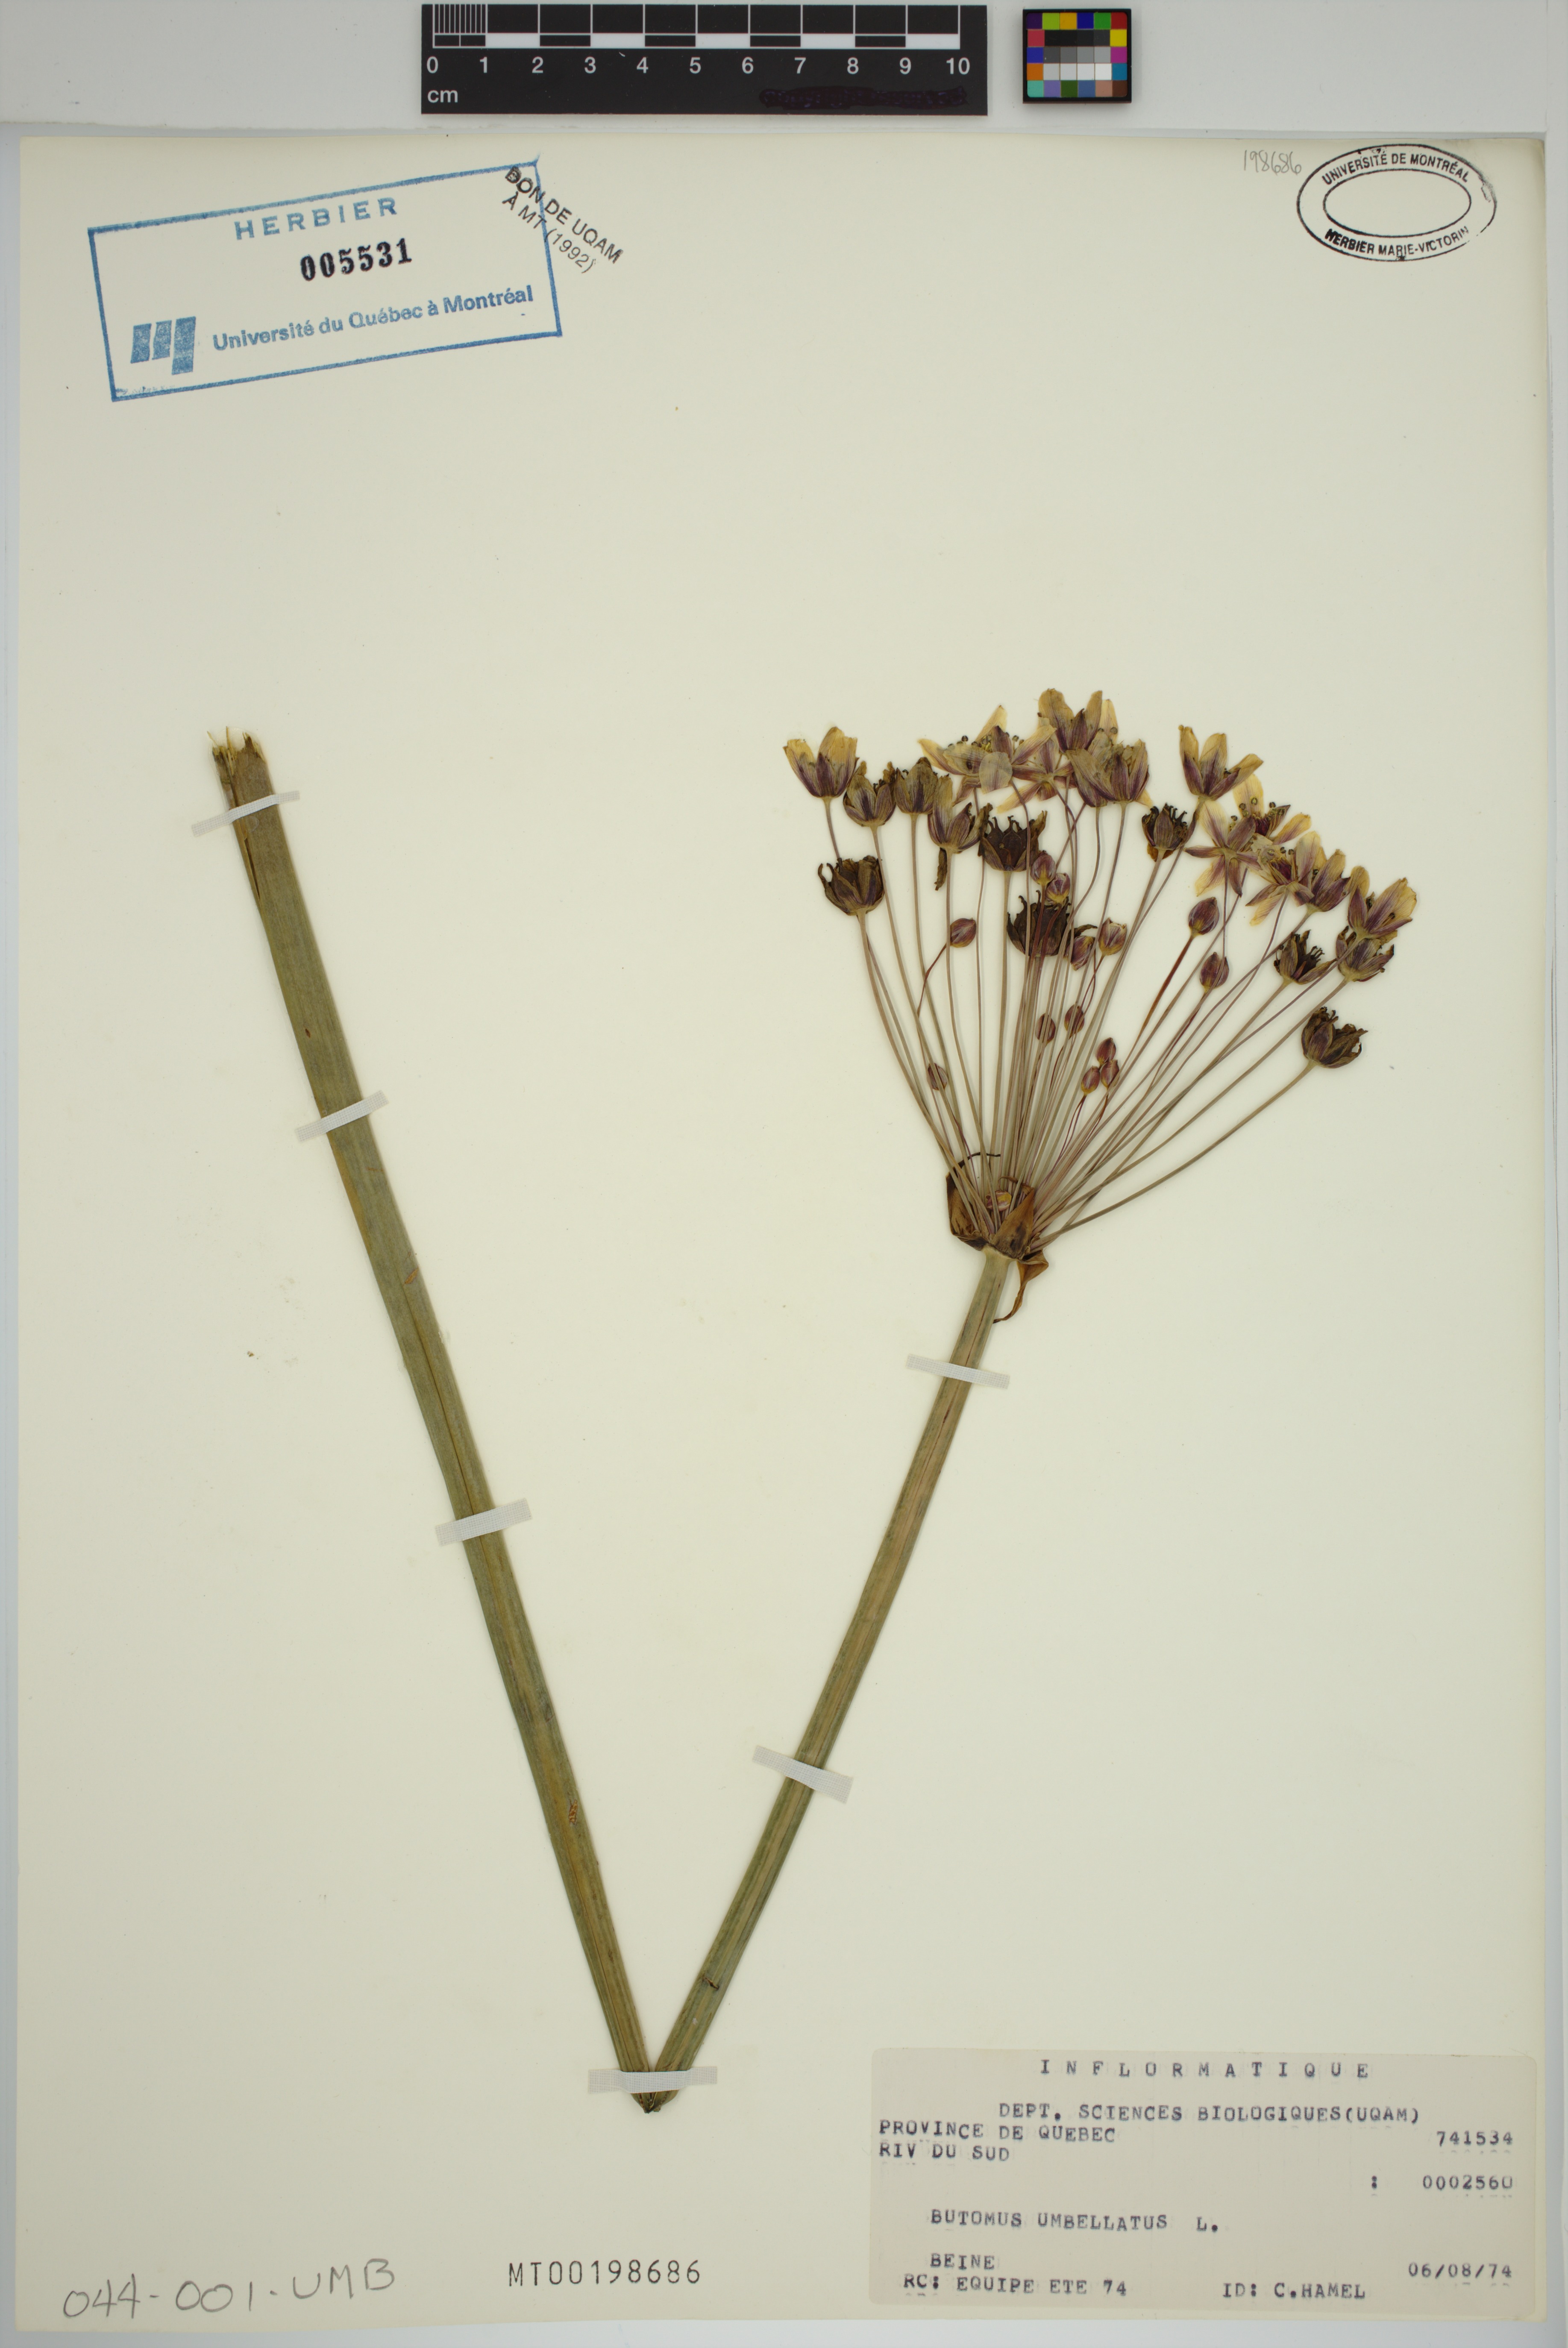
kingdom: Plantae
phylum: Tracheophyta
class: Liliopsida
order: Alismatales
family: Butomaceae
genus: Butomus
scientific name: Butomus umbellatus
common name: Flowering-rush
